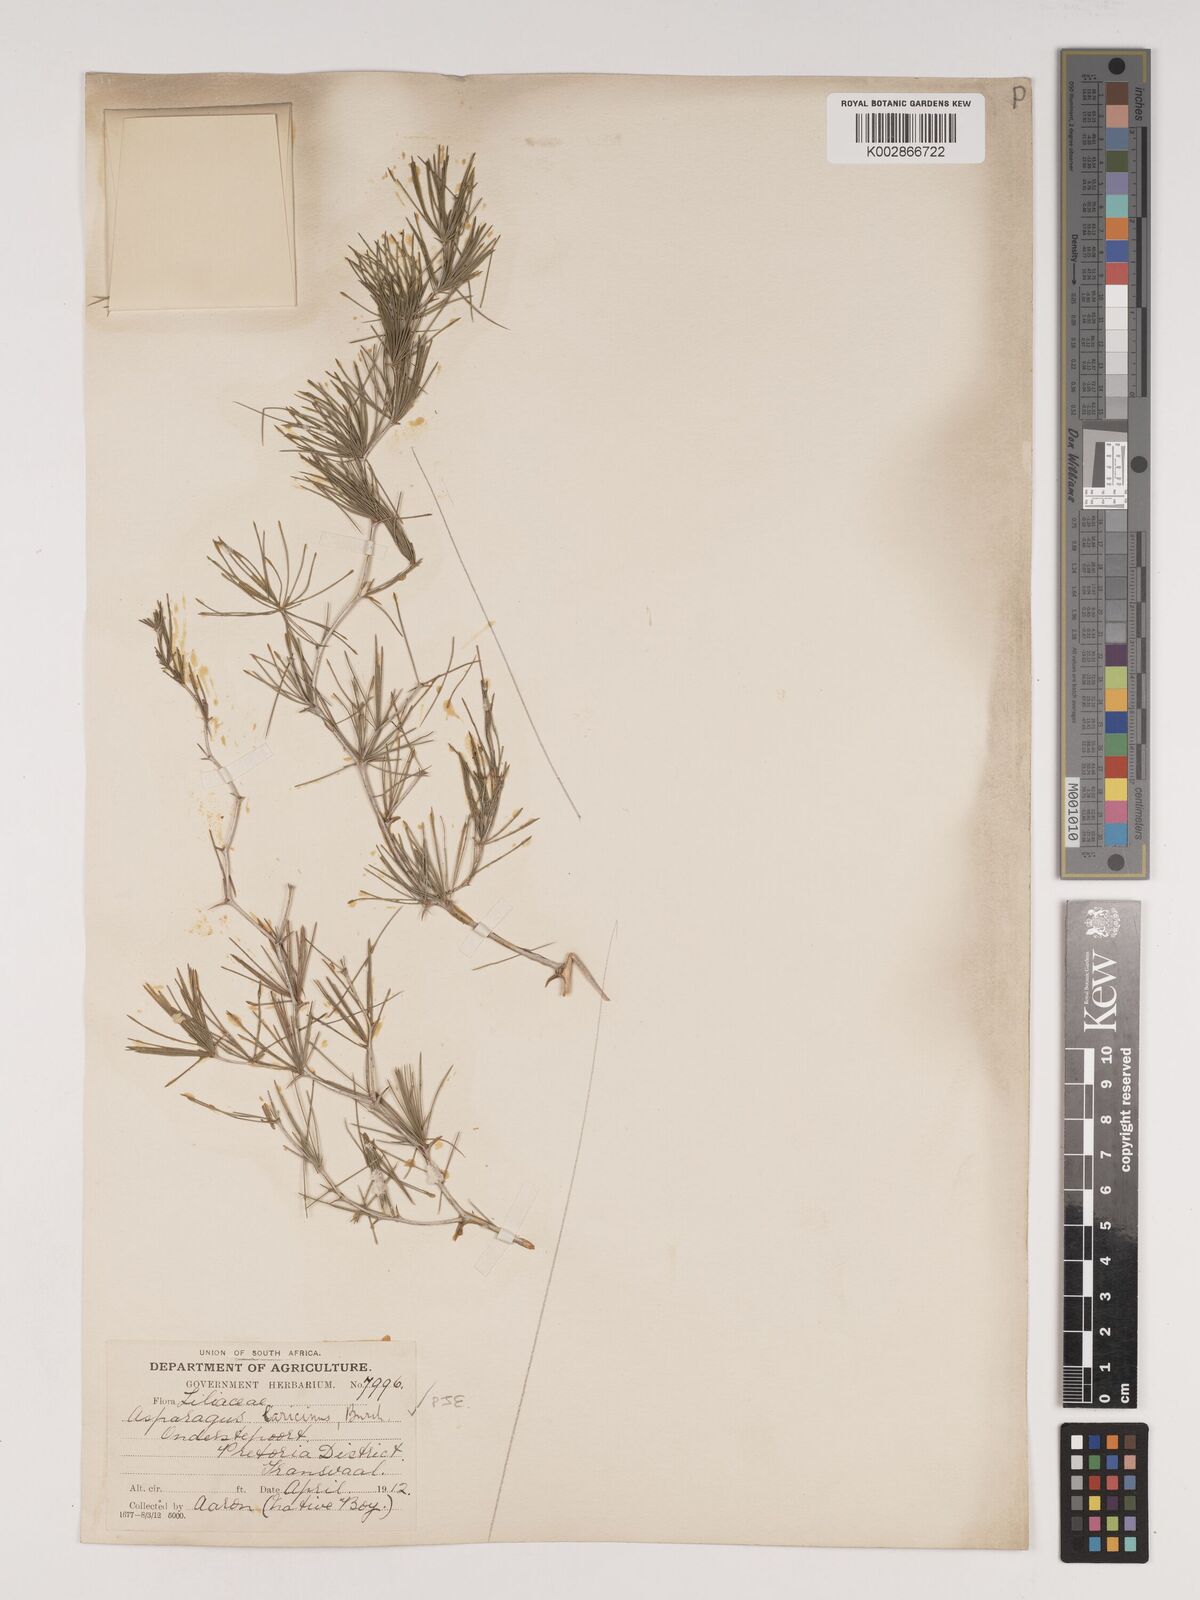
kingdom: Plantae
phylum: Tracheophyta
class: Liliopsida
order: Asparagales
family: Asparagaceae
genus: Asparagus
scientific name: Asparagus laricinus
